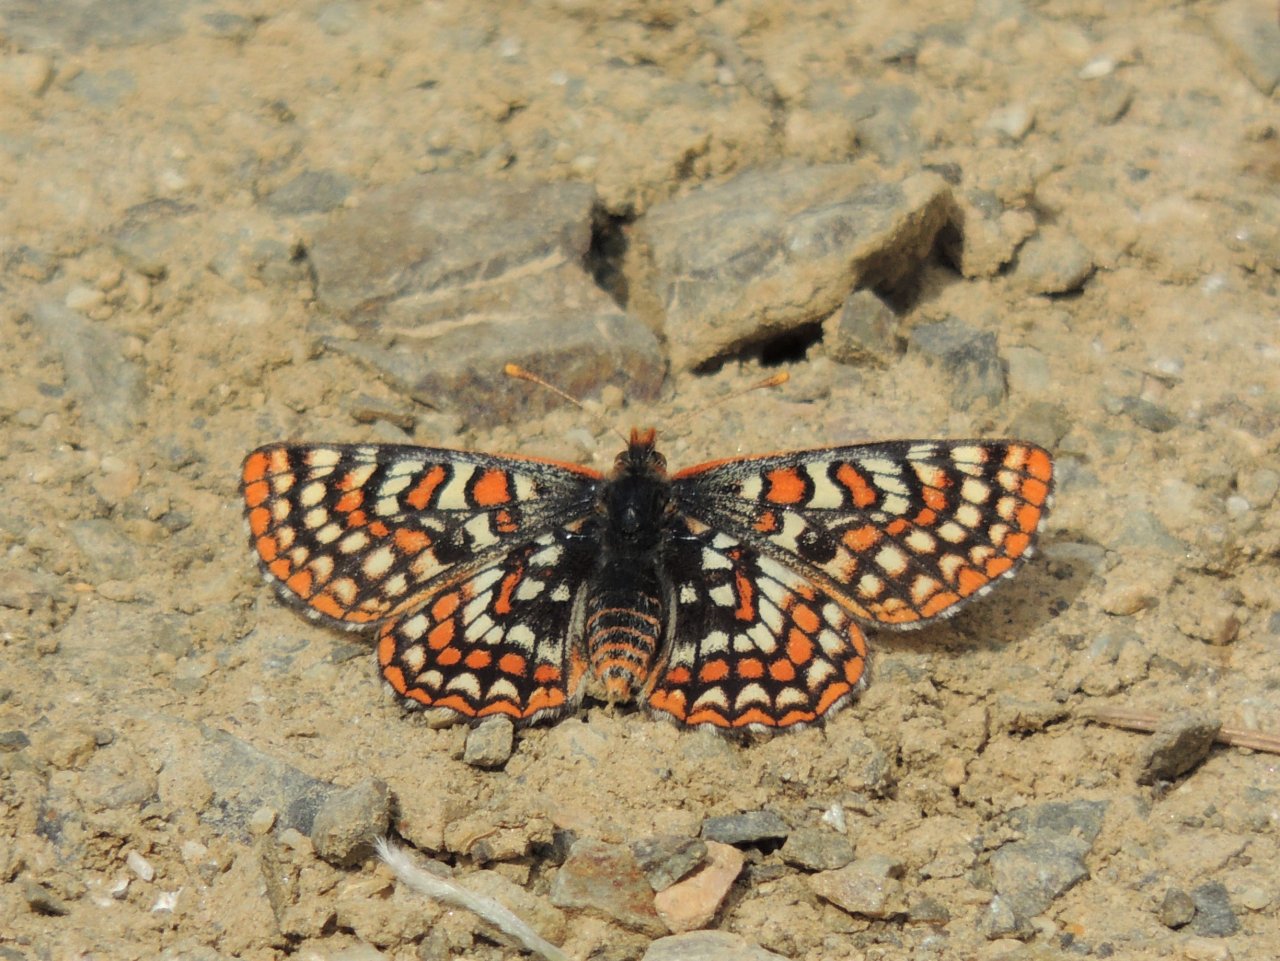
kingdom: Animalia
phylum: Arthropoda
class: Insecta
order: Lepidoptera
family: Nymphalidae
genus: Occidryas
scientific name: Occidryas editha
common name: Edith's Checkerspot
